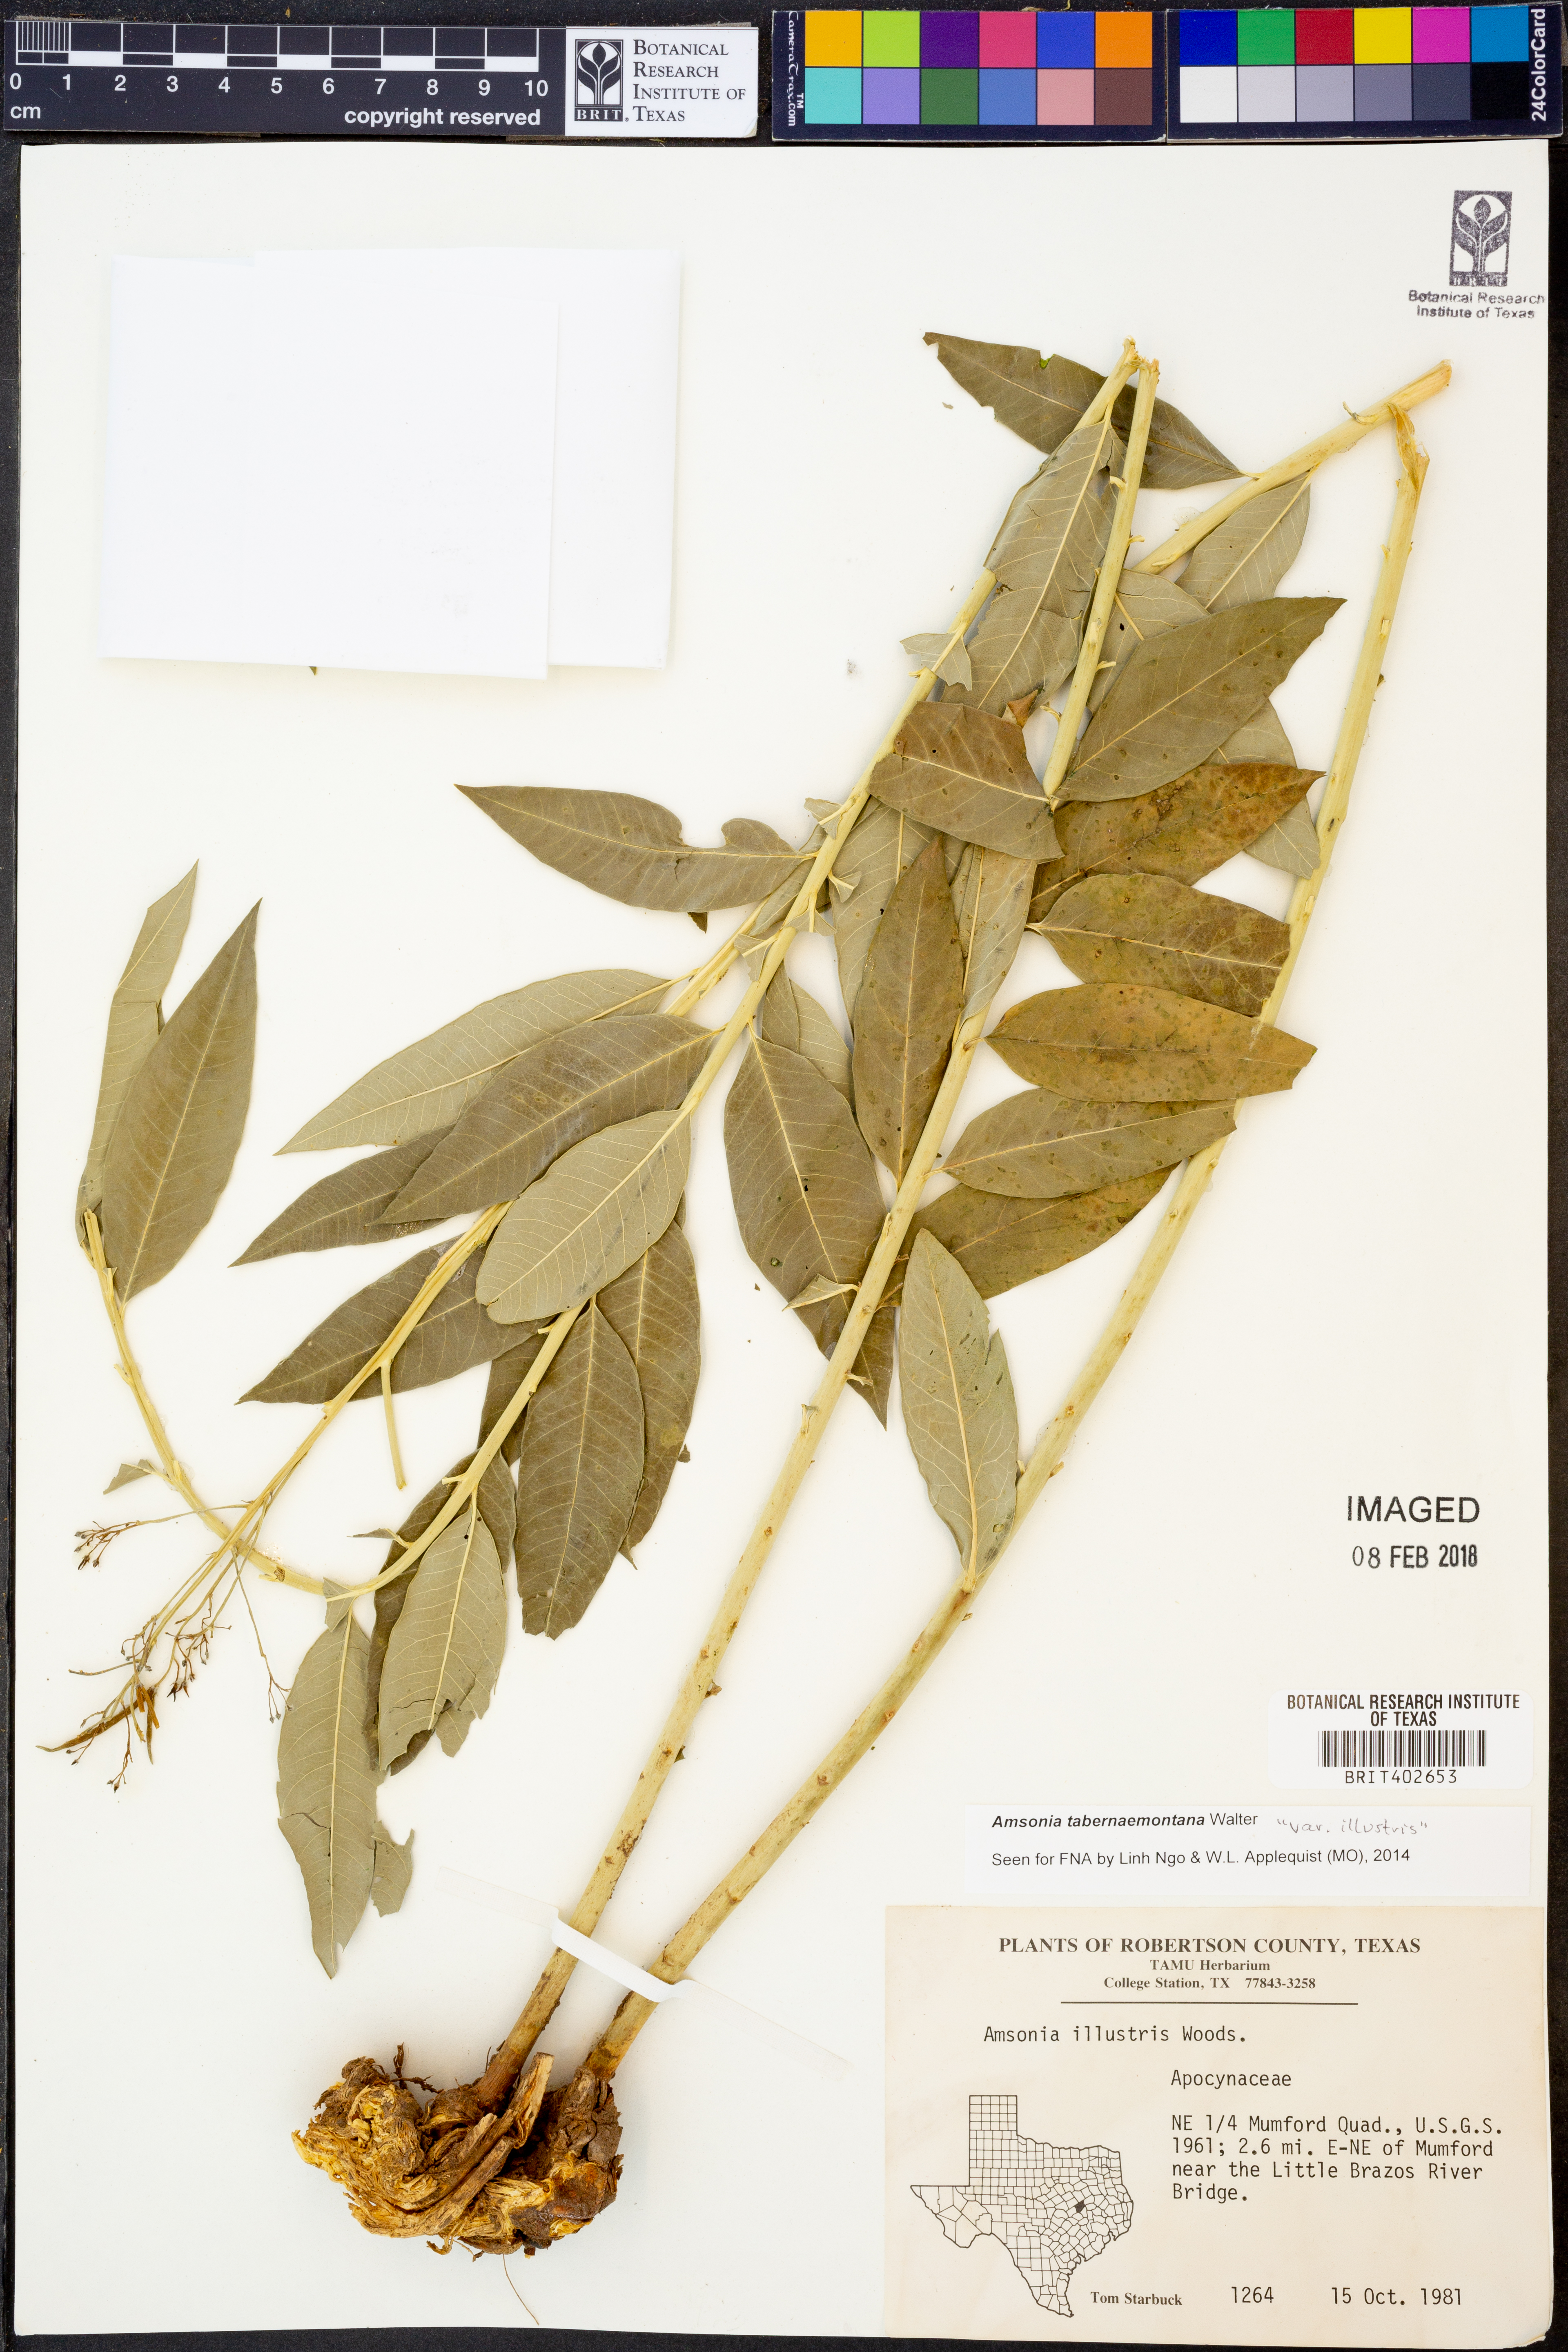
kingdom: Plantae
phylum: Tracheophyta
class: Magnoliopsida
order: Gentianales
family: Apocynaceae
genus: Amsonia
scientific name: Amsonia tabernaemontana
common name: Texas-star
